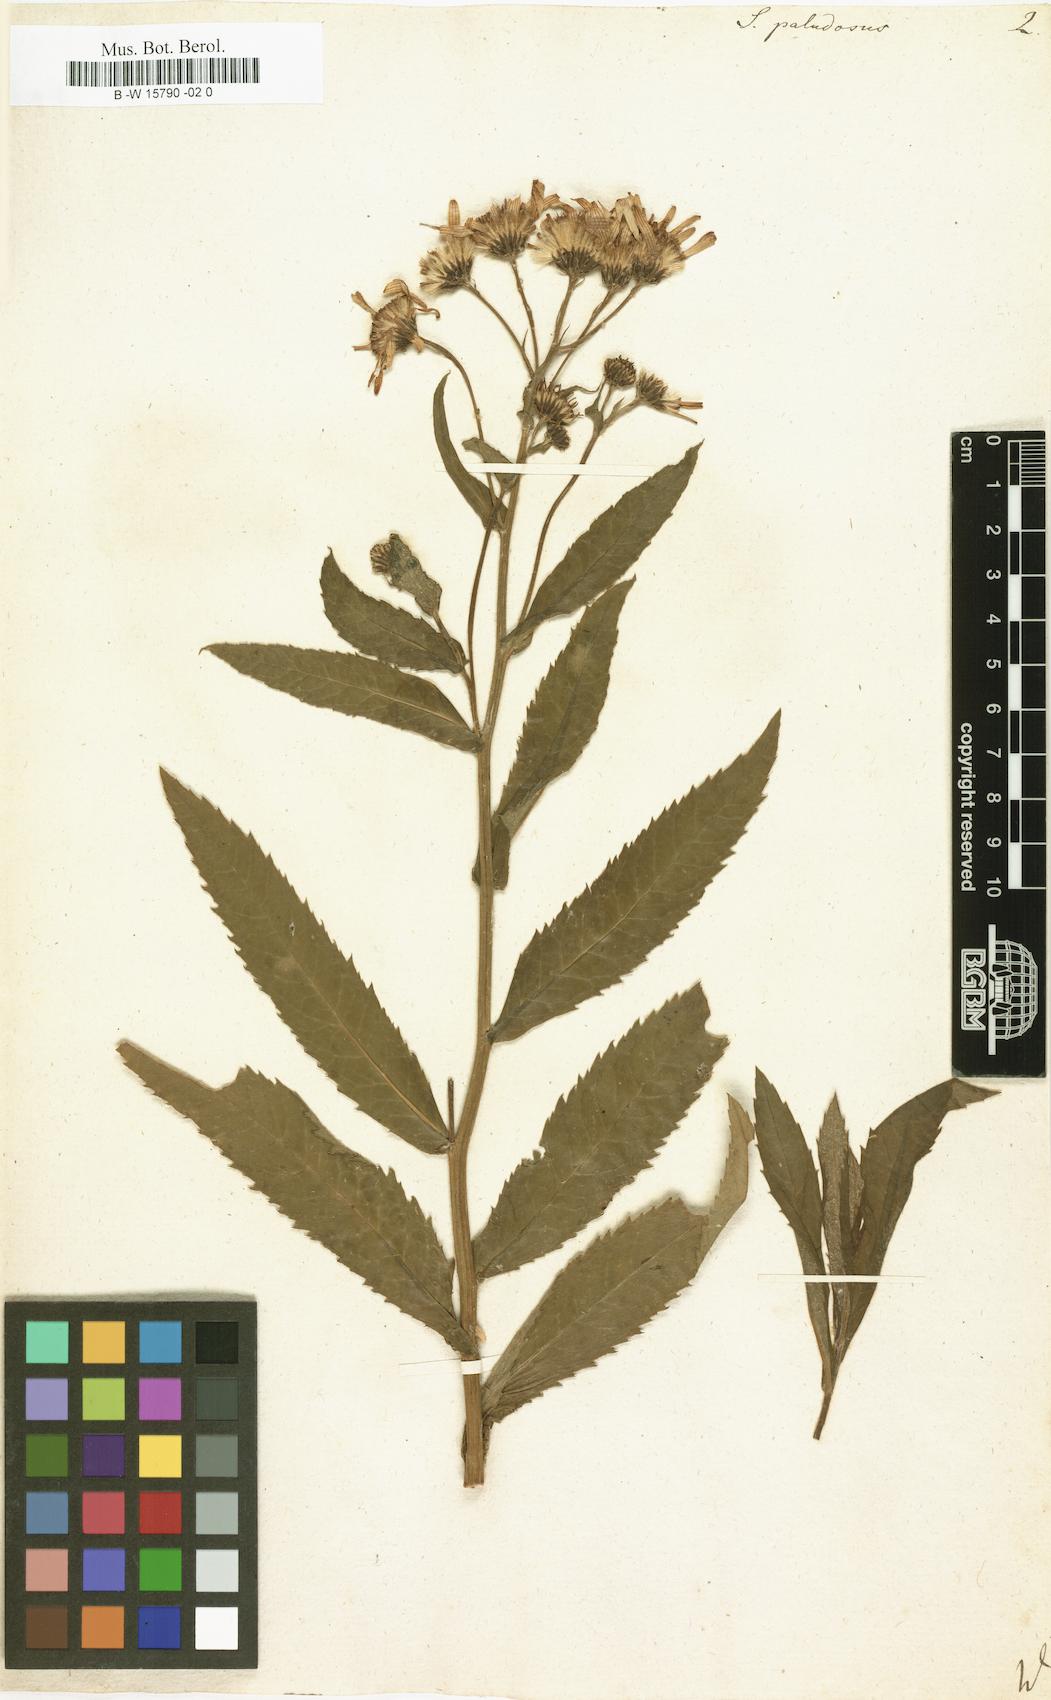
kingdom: Plantae
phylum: Tracheophyta
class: Magnoliopsida
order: Asterales
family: Asteraceae
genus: Jacobaea
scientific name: Jacobaea paludosa
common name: Fen ragwort
